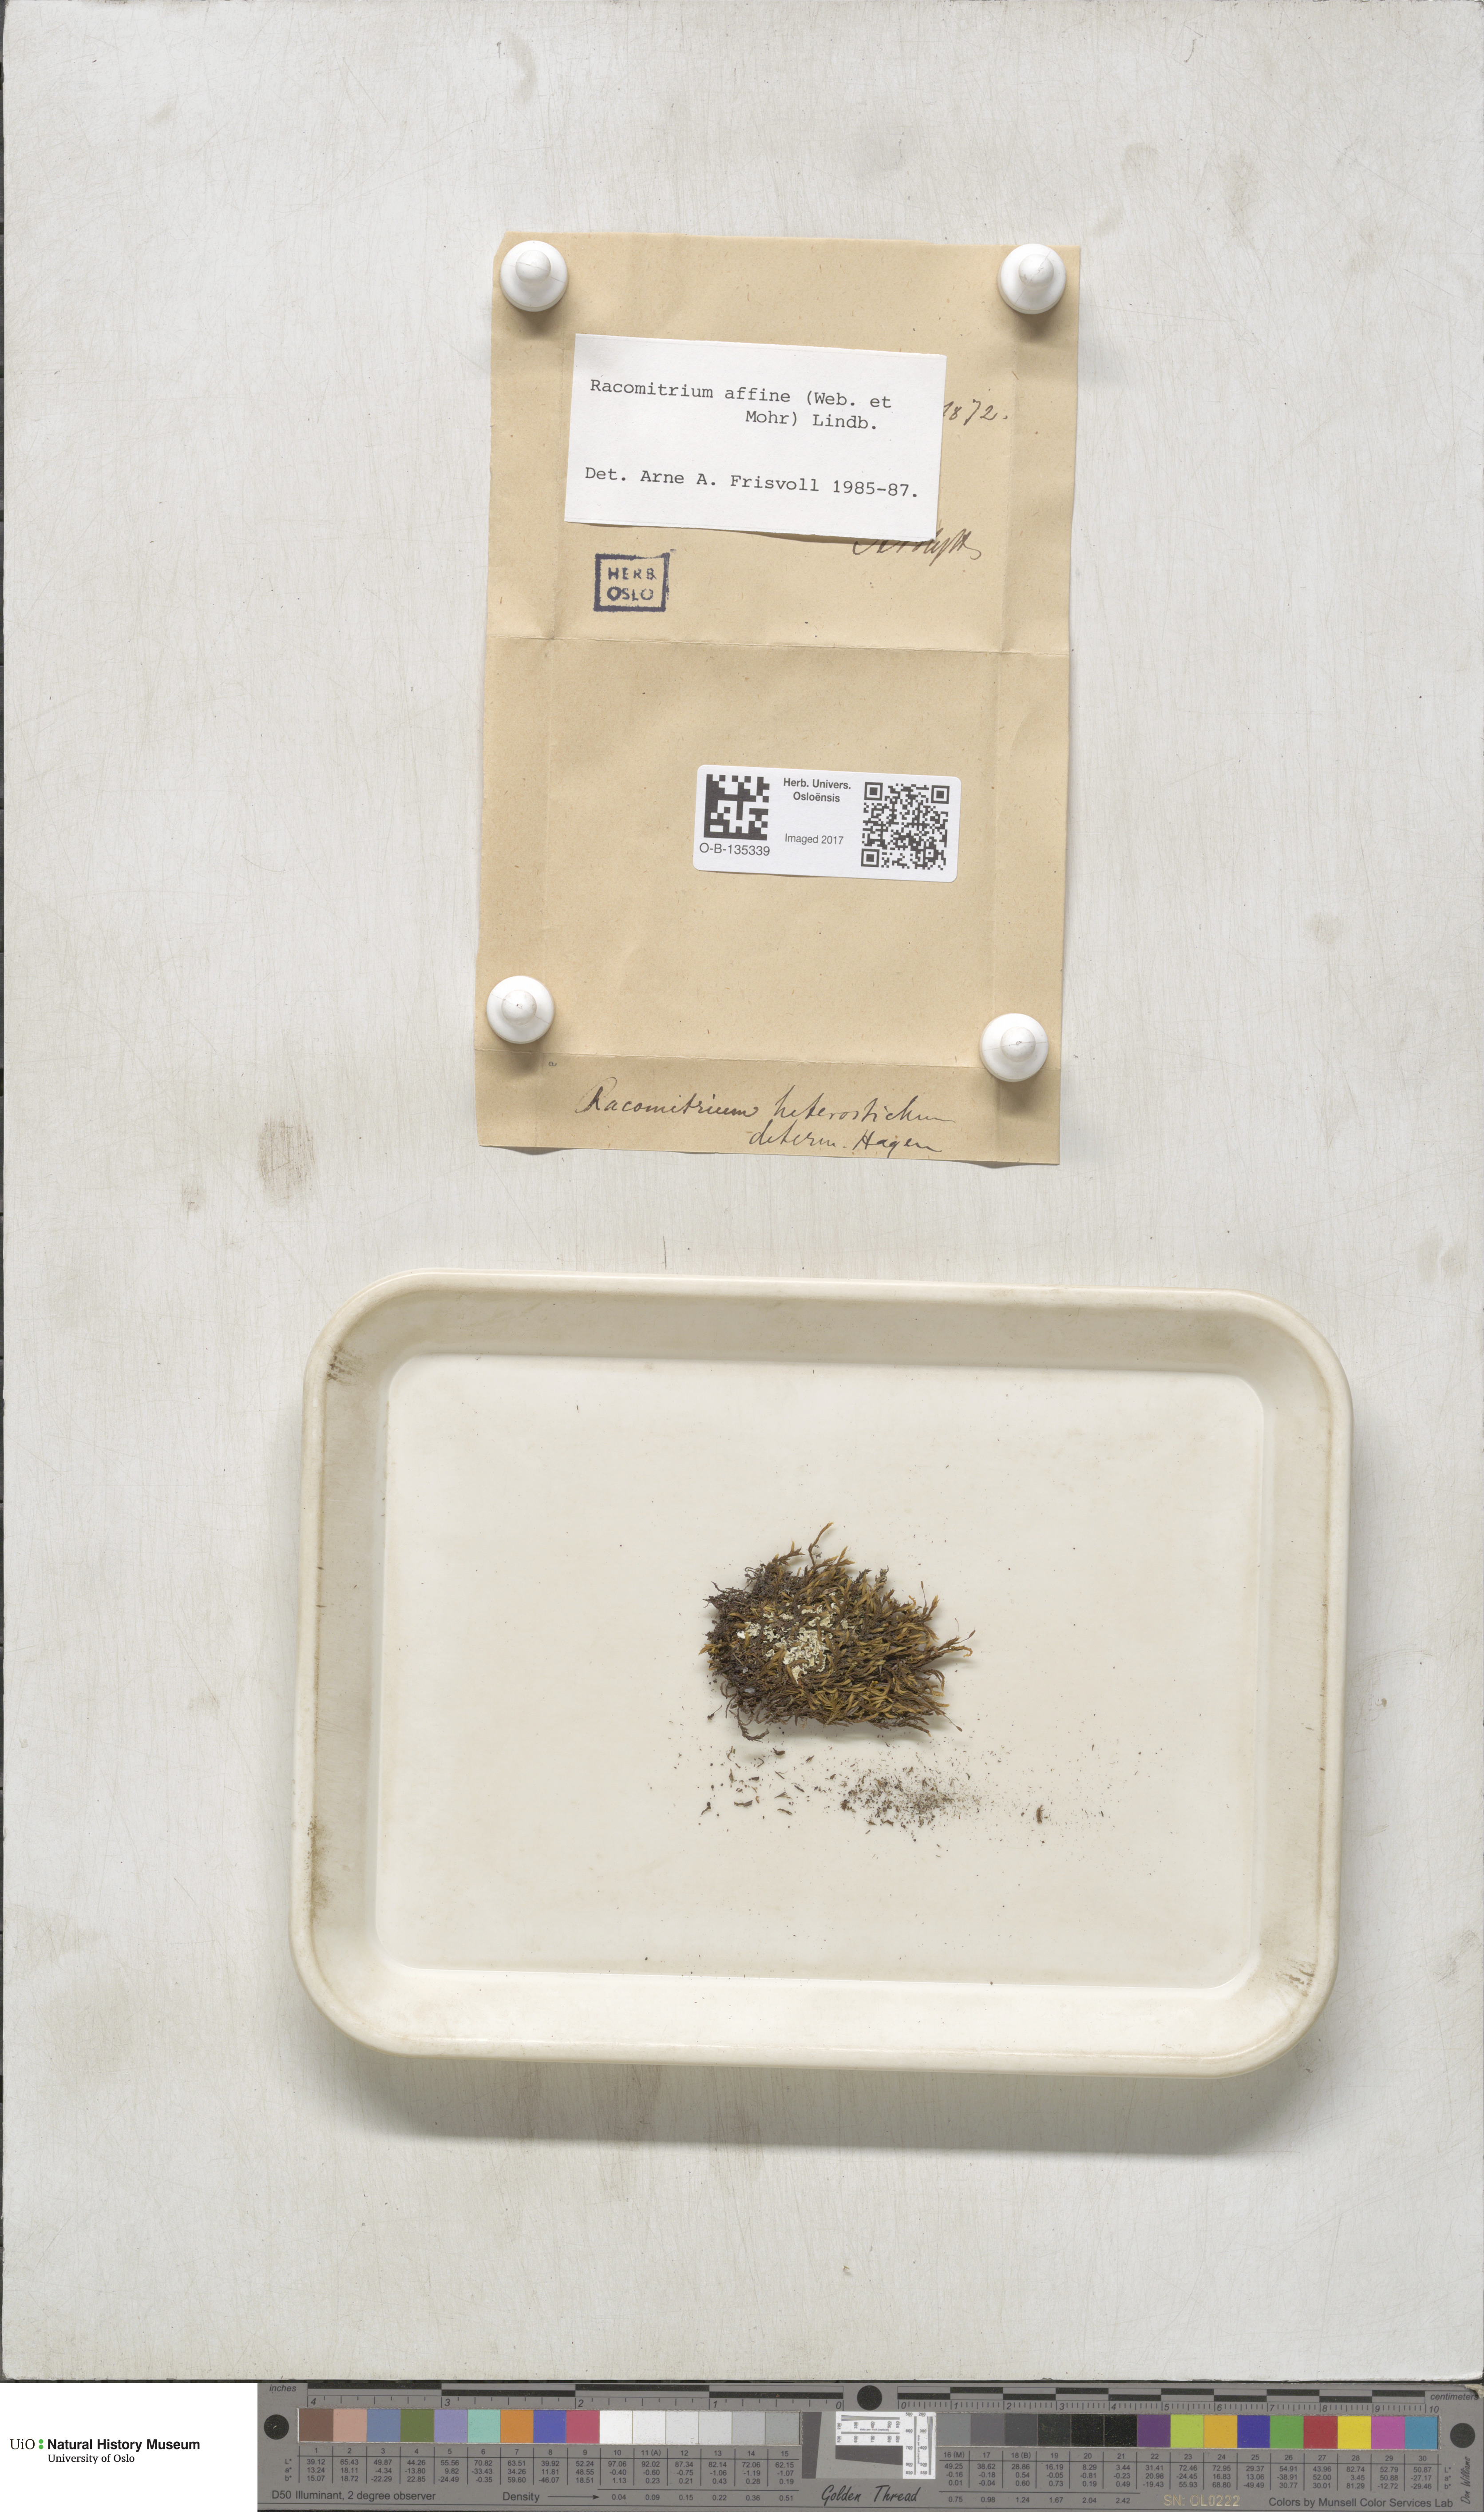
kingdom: Plantae
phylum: Bryophyta
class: Bryopsida
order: Grimmiales
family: Grimmiaceae
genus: Bucklandiella
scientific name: Bucklandiella affinis
